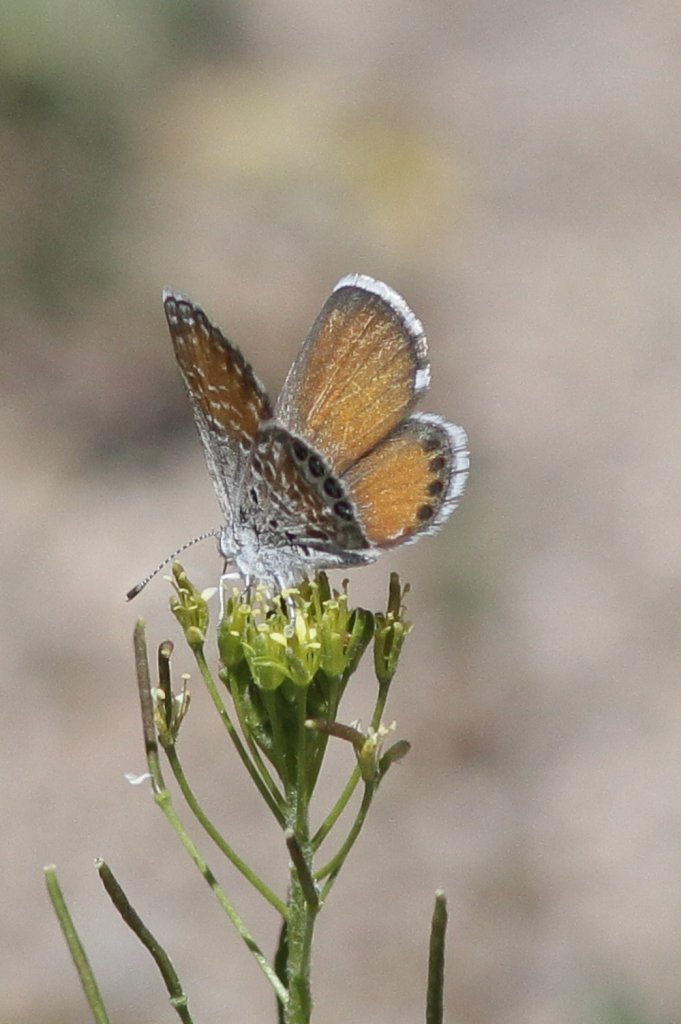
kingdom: Animalia
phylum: Arthropoda
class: Insecta
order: Lepidoptera
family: Lycaenidae
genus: Brephidium
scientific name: Brephidium exilis
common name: Western Pygmy-Blue
